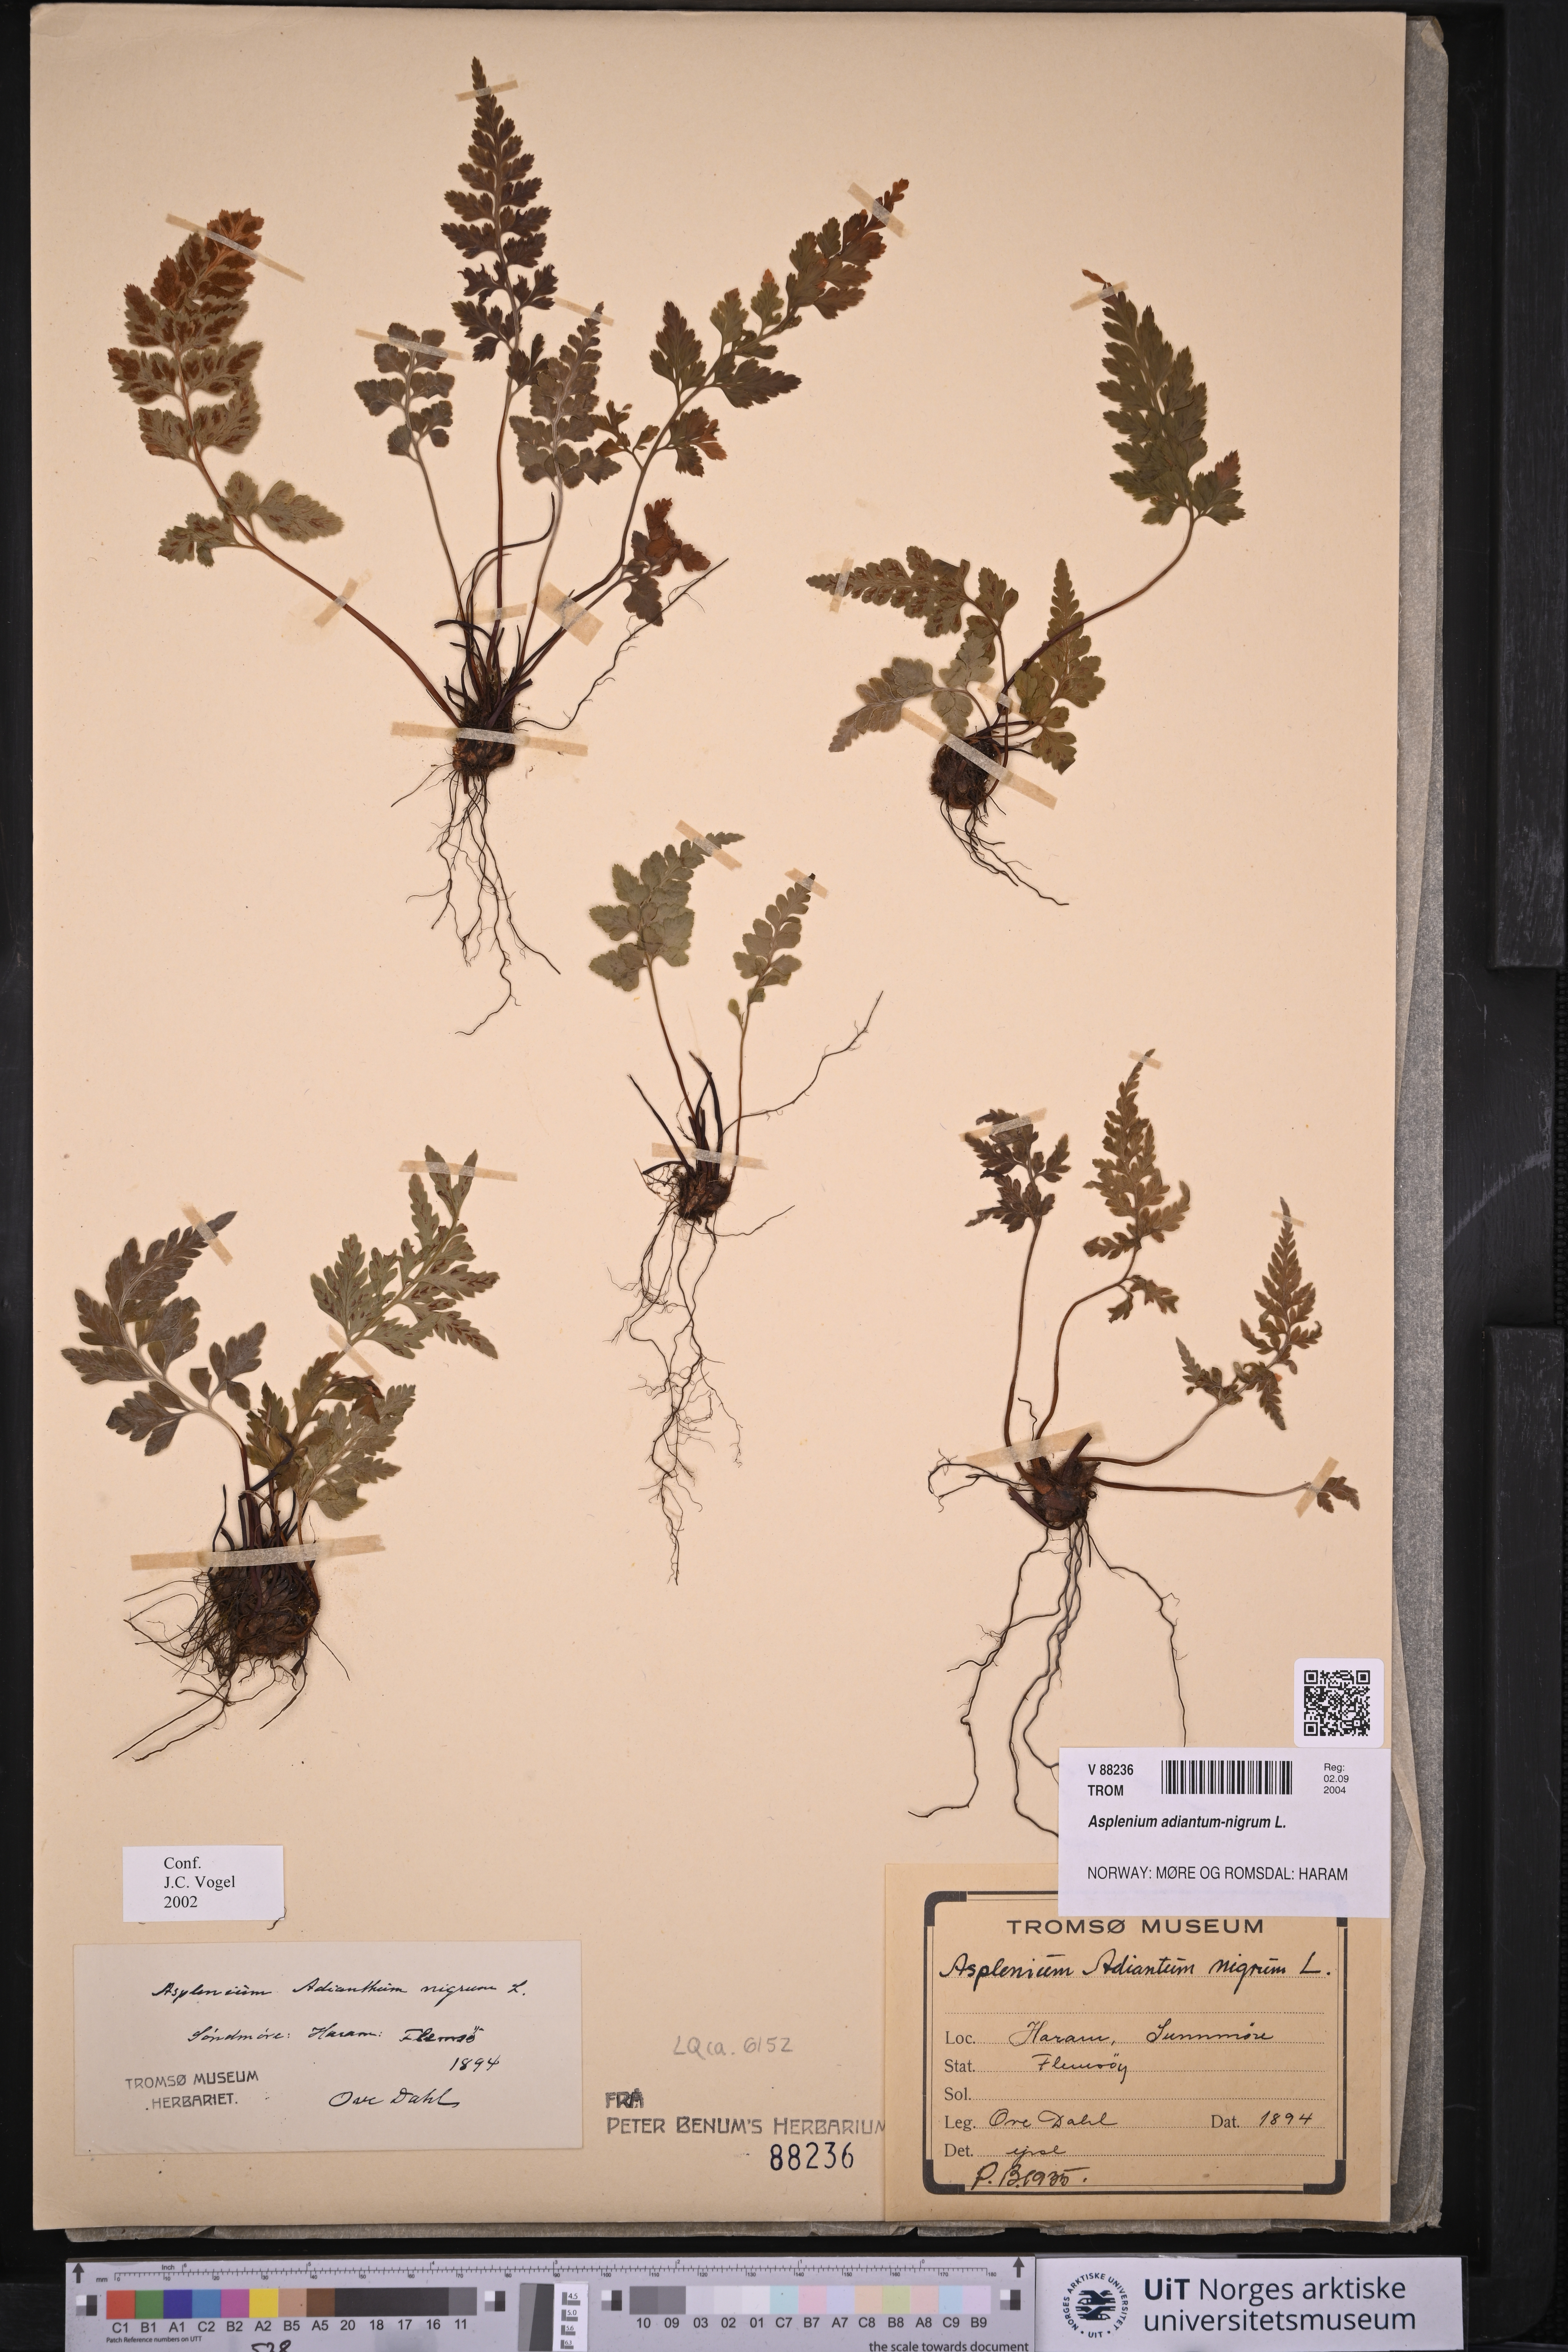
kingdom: Plantae
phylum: Tracheophyta
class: Polypodiopsida
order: Polypodiales
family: Aspleniaceae
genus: Asplenium
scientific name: Asplenium adiantum-nigrum
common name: Black spleenwort
